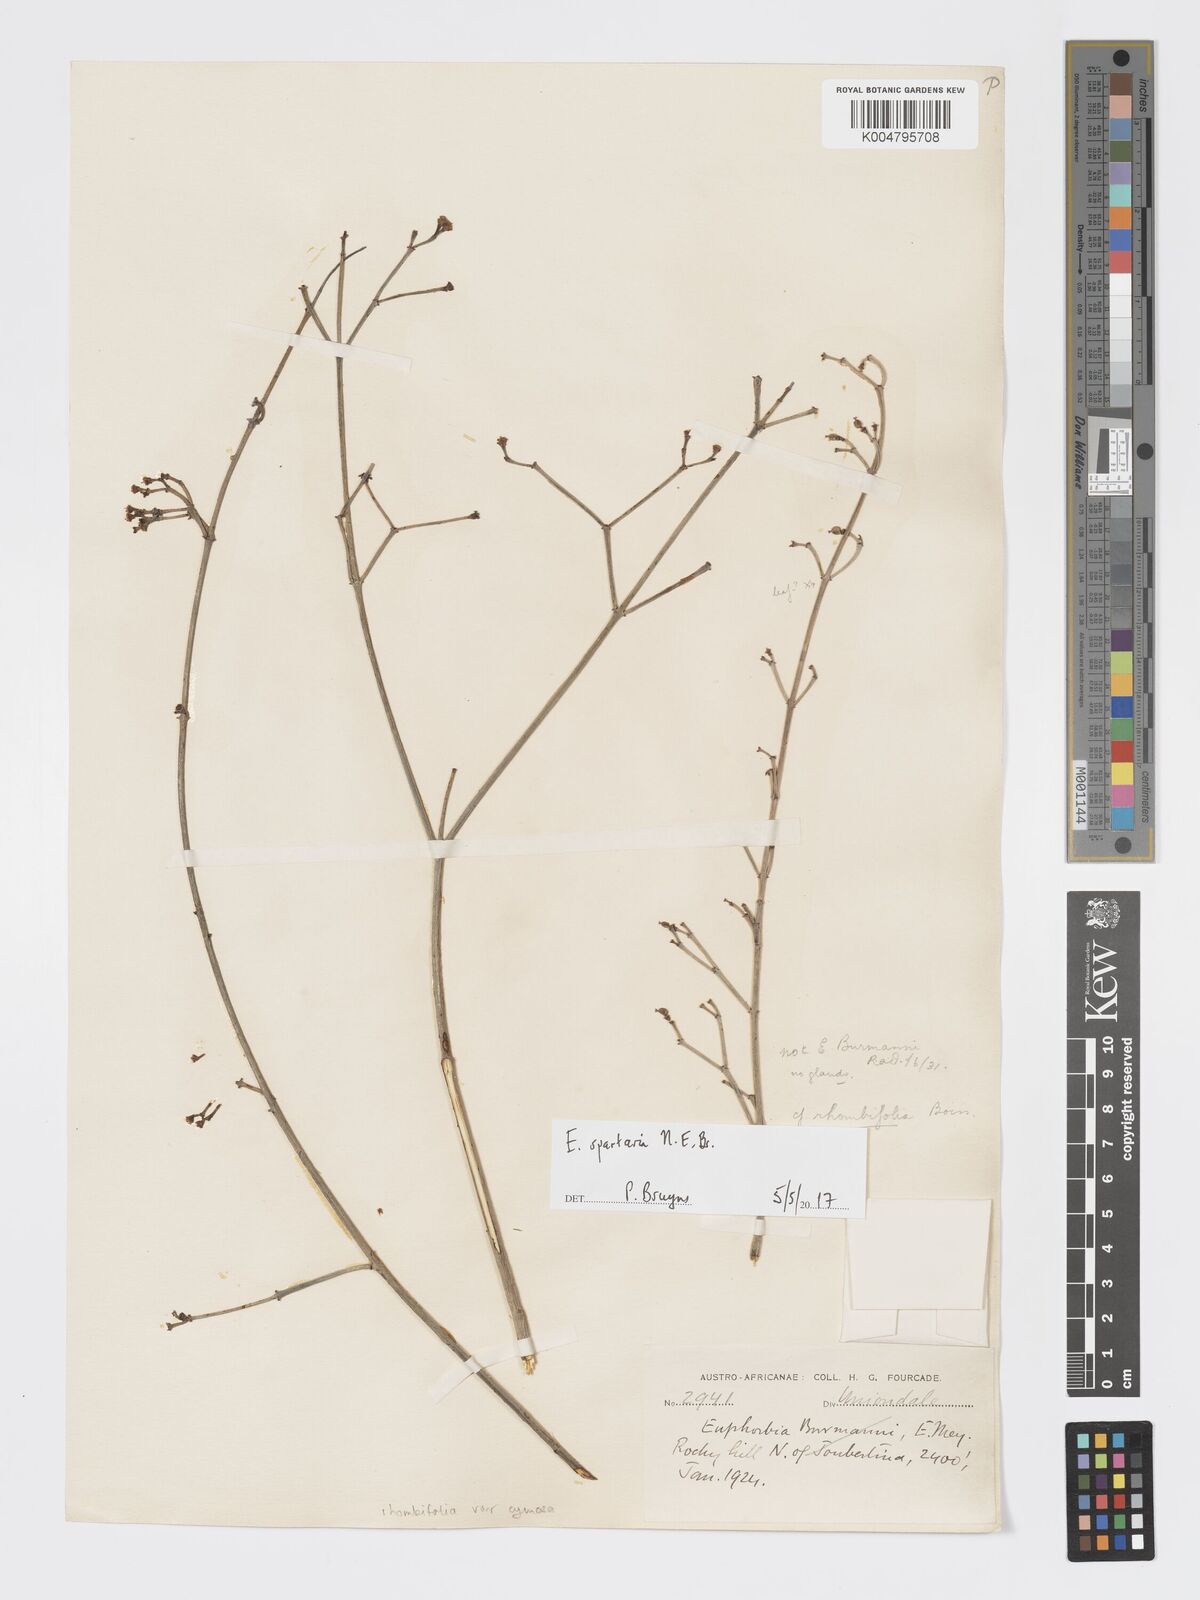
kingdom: Plantae
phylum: Tracheophyta
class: Magnoliopsida
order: Malpighiales
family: Euphorbiaceae
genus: Euphorbia
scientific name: Euphorbia spartaria
